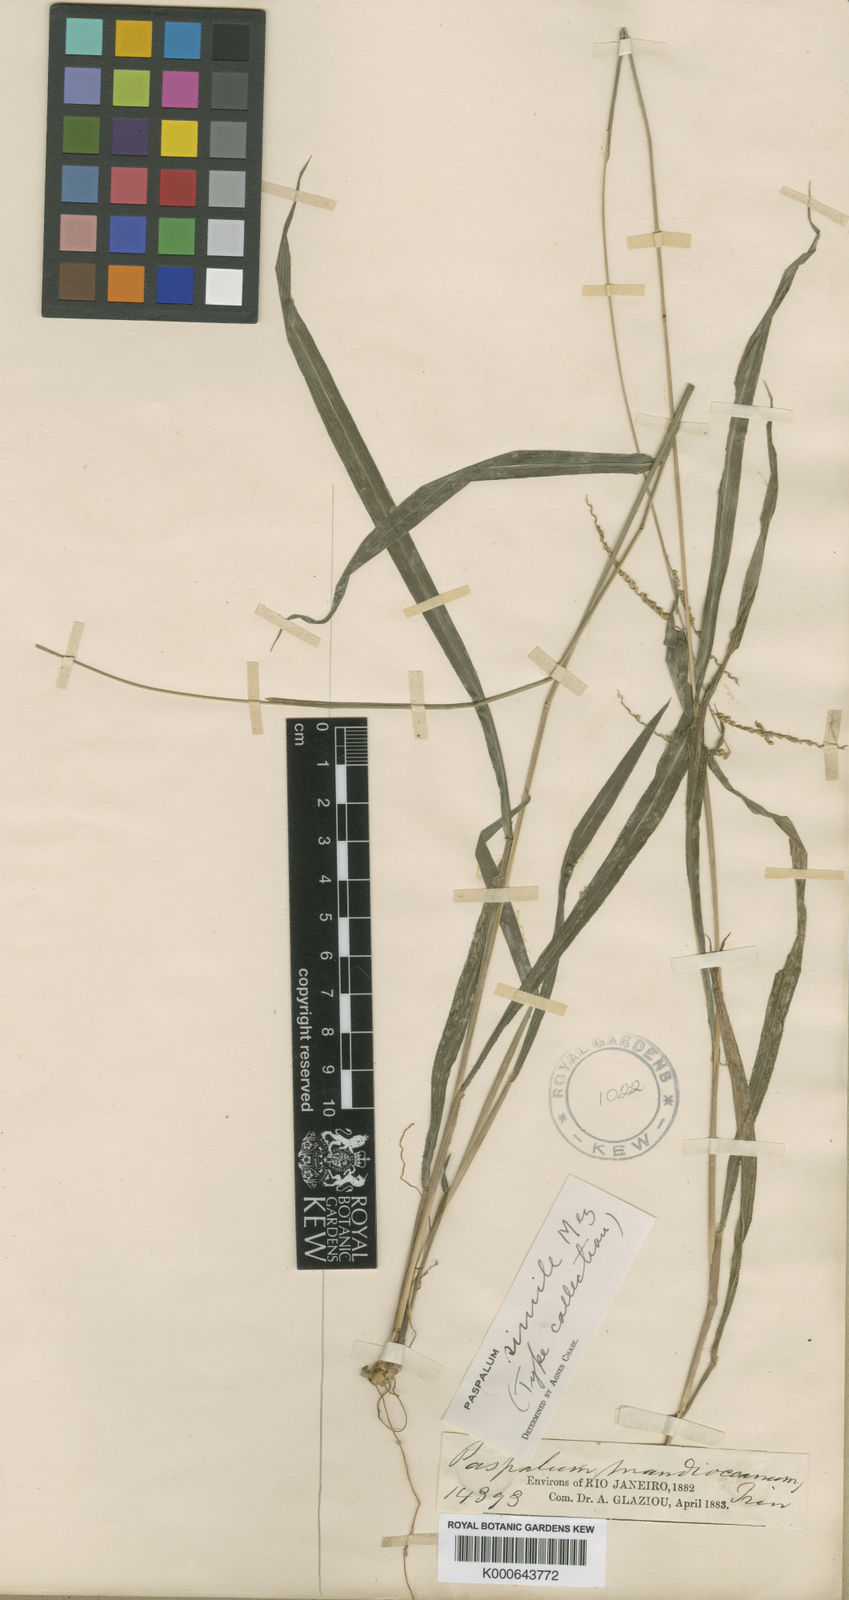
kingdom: Plantae
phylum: Tracheophyta
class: Liliopsida
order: Poales
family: Poaceae
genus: Paspalum
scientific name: Paspalum molle
